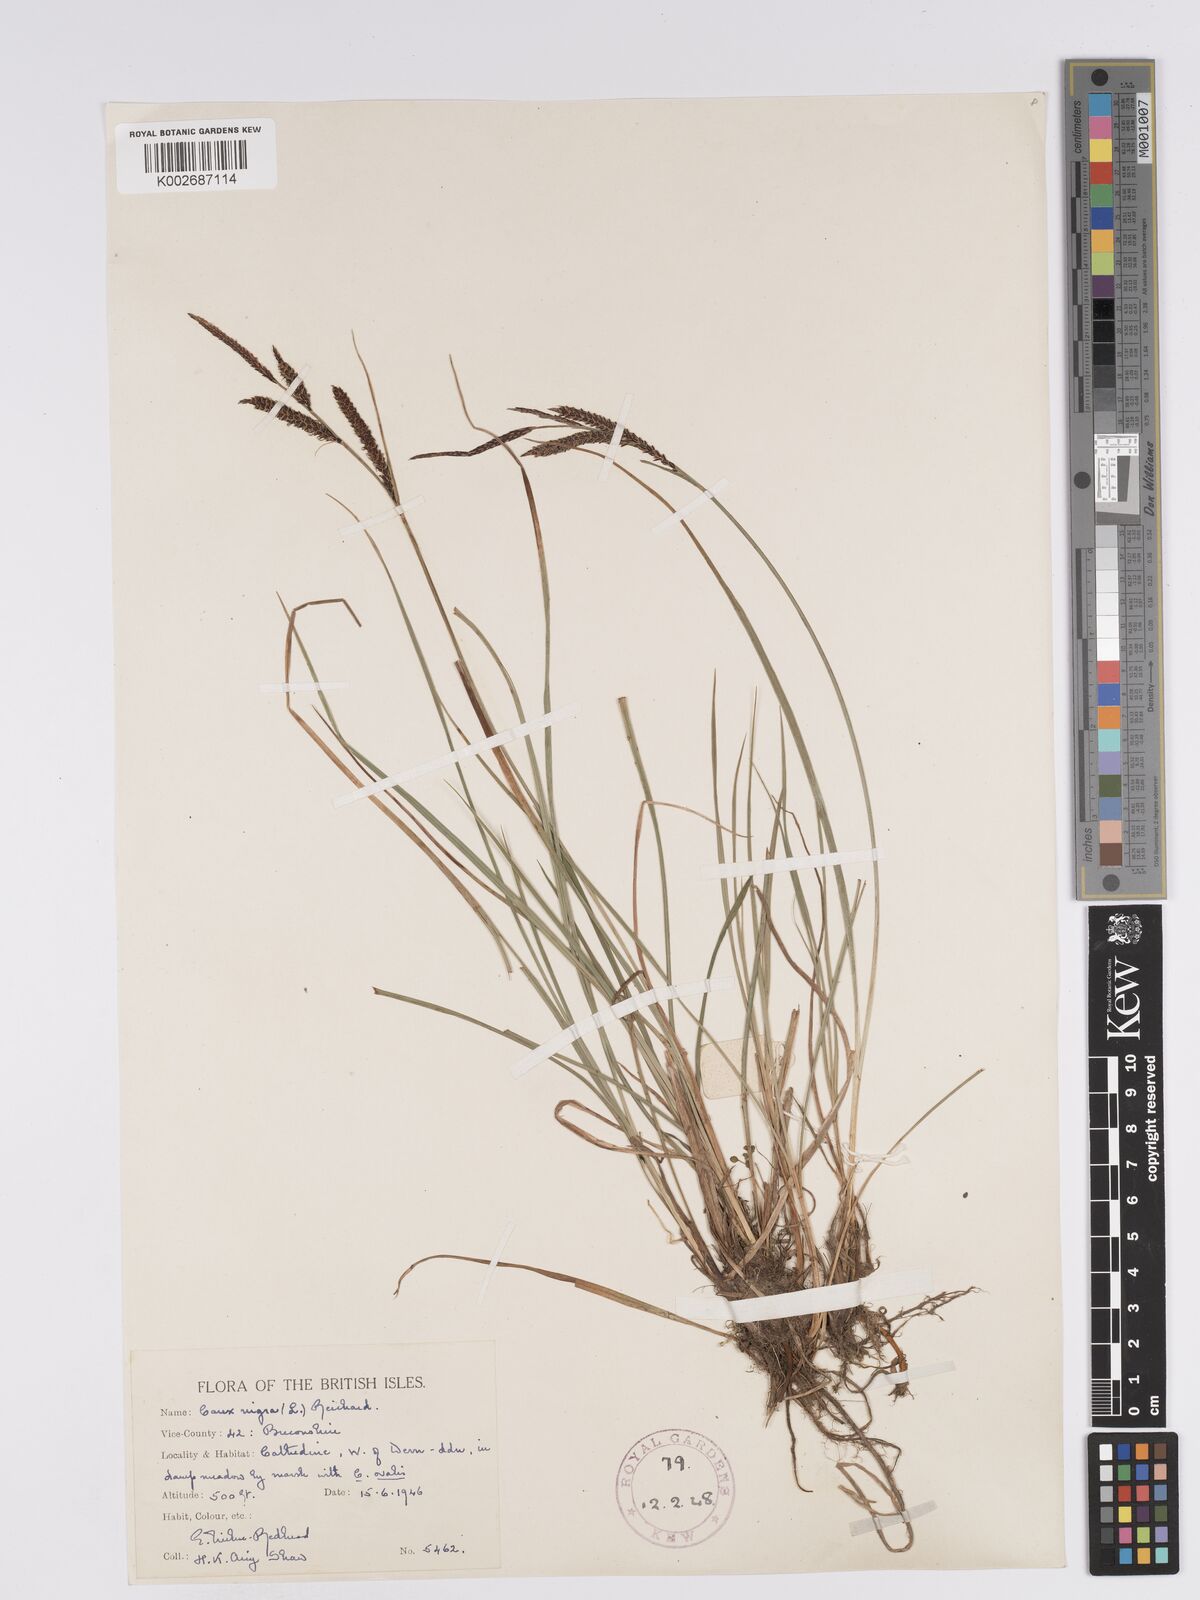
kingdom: Plantae
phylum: Tracheophyta
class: Liliopsida
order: Poales
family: Cyperaceae
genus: Carex
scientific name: Carex nigra
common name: Common sedge
